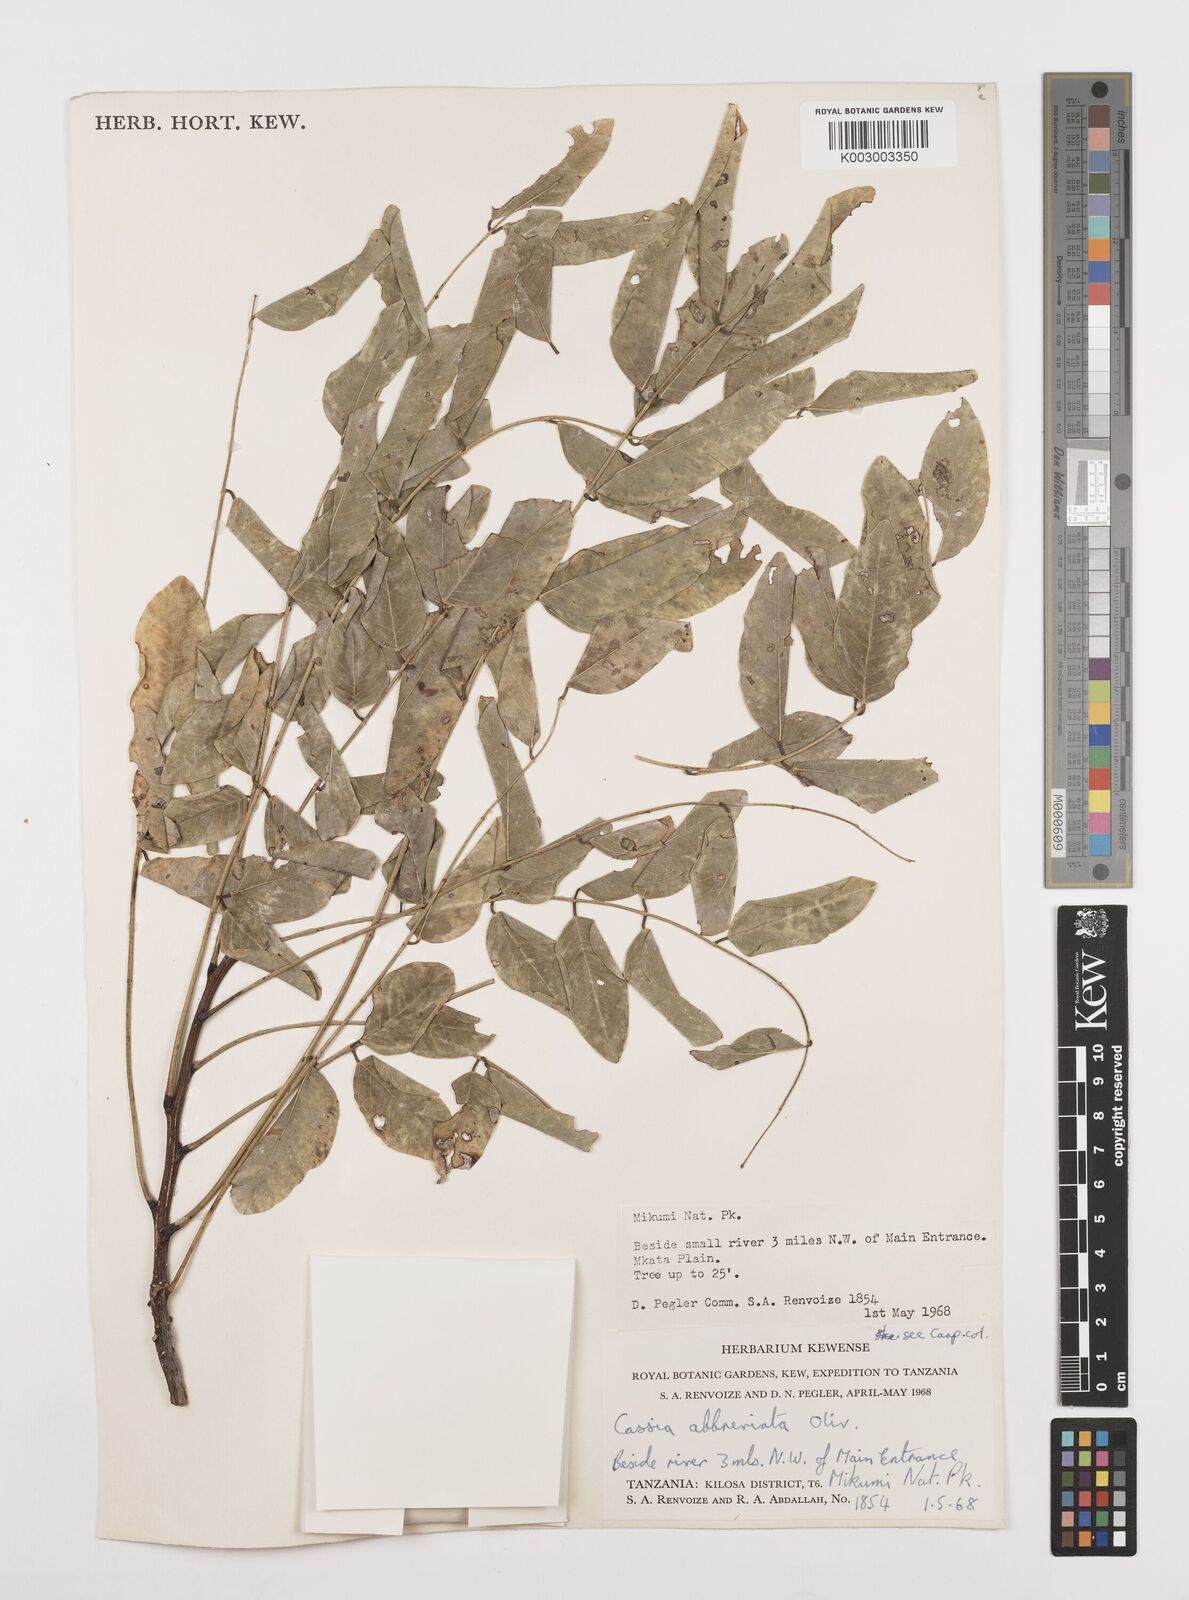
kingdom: Plantae
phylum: Tracheophyta
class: Magnoliopsida
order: Fabales
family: Fabaceae
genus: Cassia
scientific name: Cassia abbreviata
